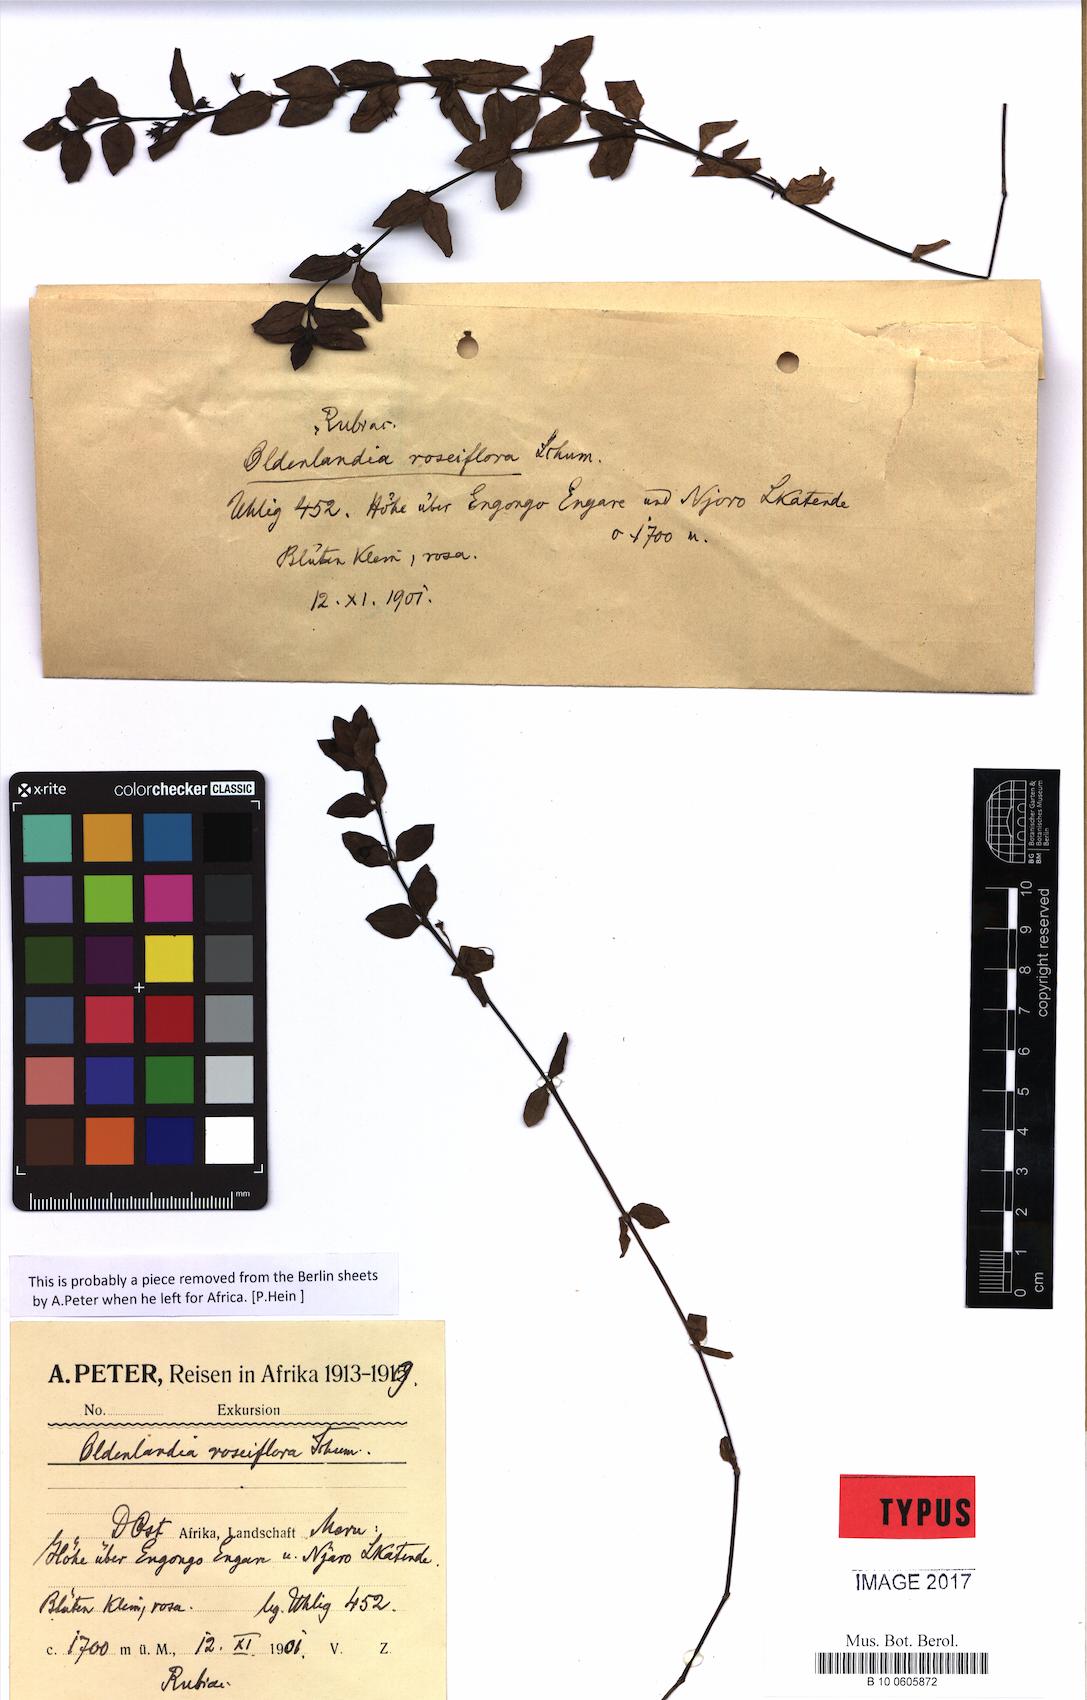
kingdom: Plantae
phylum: Tracheophyta
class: Magnoliopsida
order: Gentianales
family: Rubiaceae
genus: Oldenlandia
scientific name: Oldenlandia monanthos
